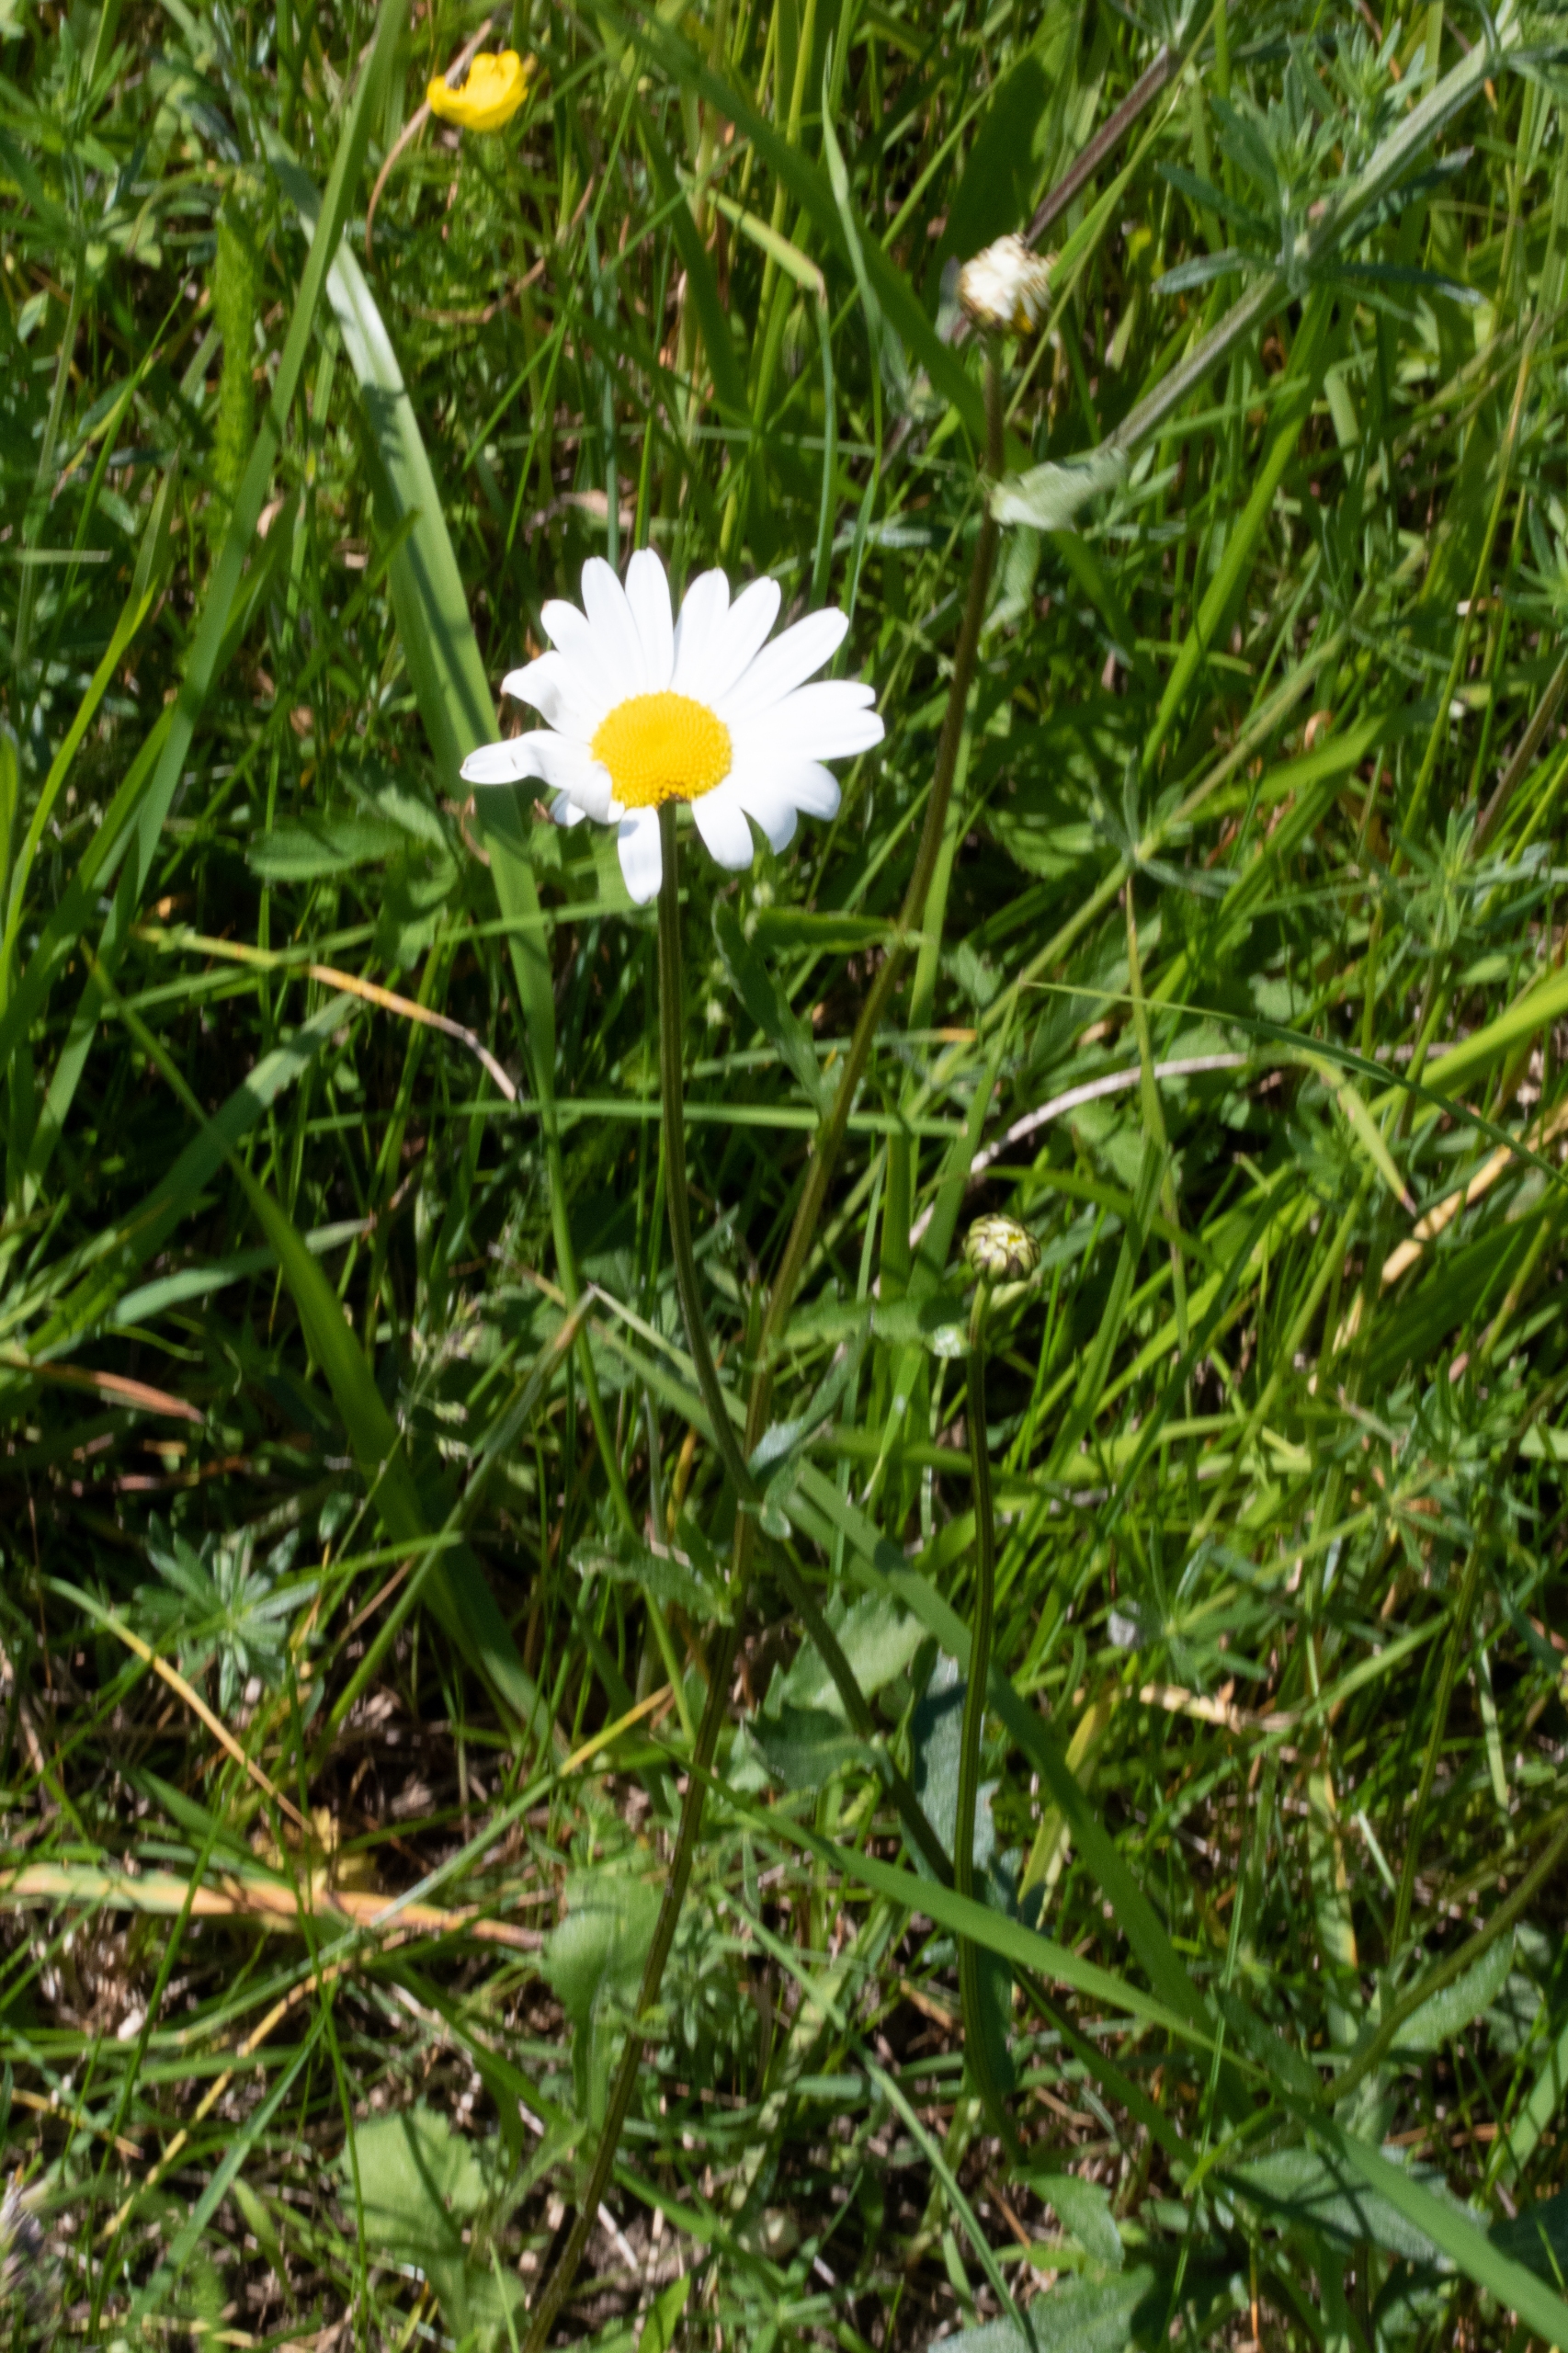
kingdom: Plantae
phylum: Tracheophyta
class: Magnoliopsida
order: Asterales
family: Asteraceae
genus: Leucanthemum
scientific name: Leucanthemum vulgare
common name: Hvid okseøje
